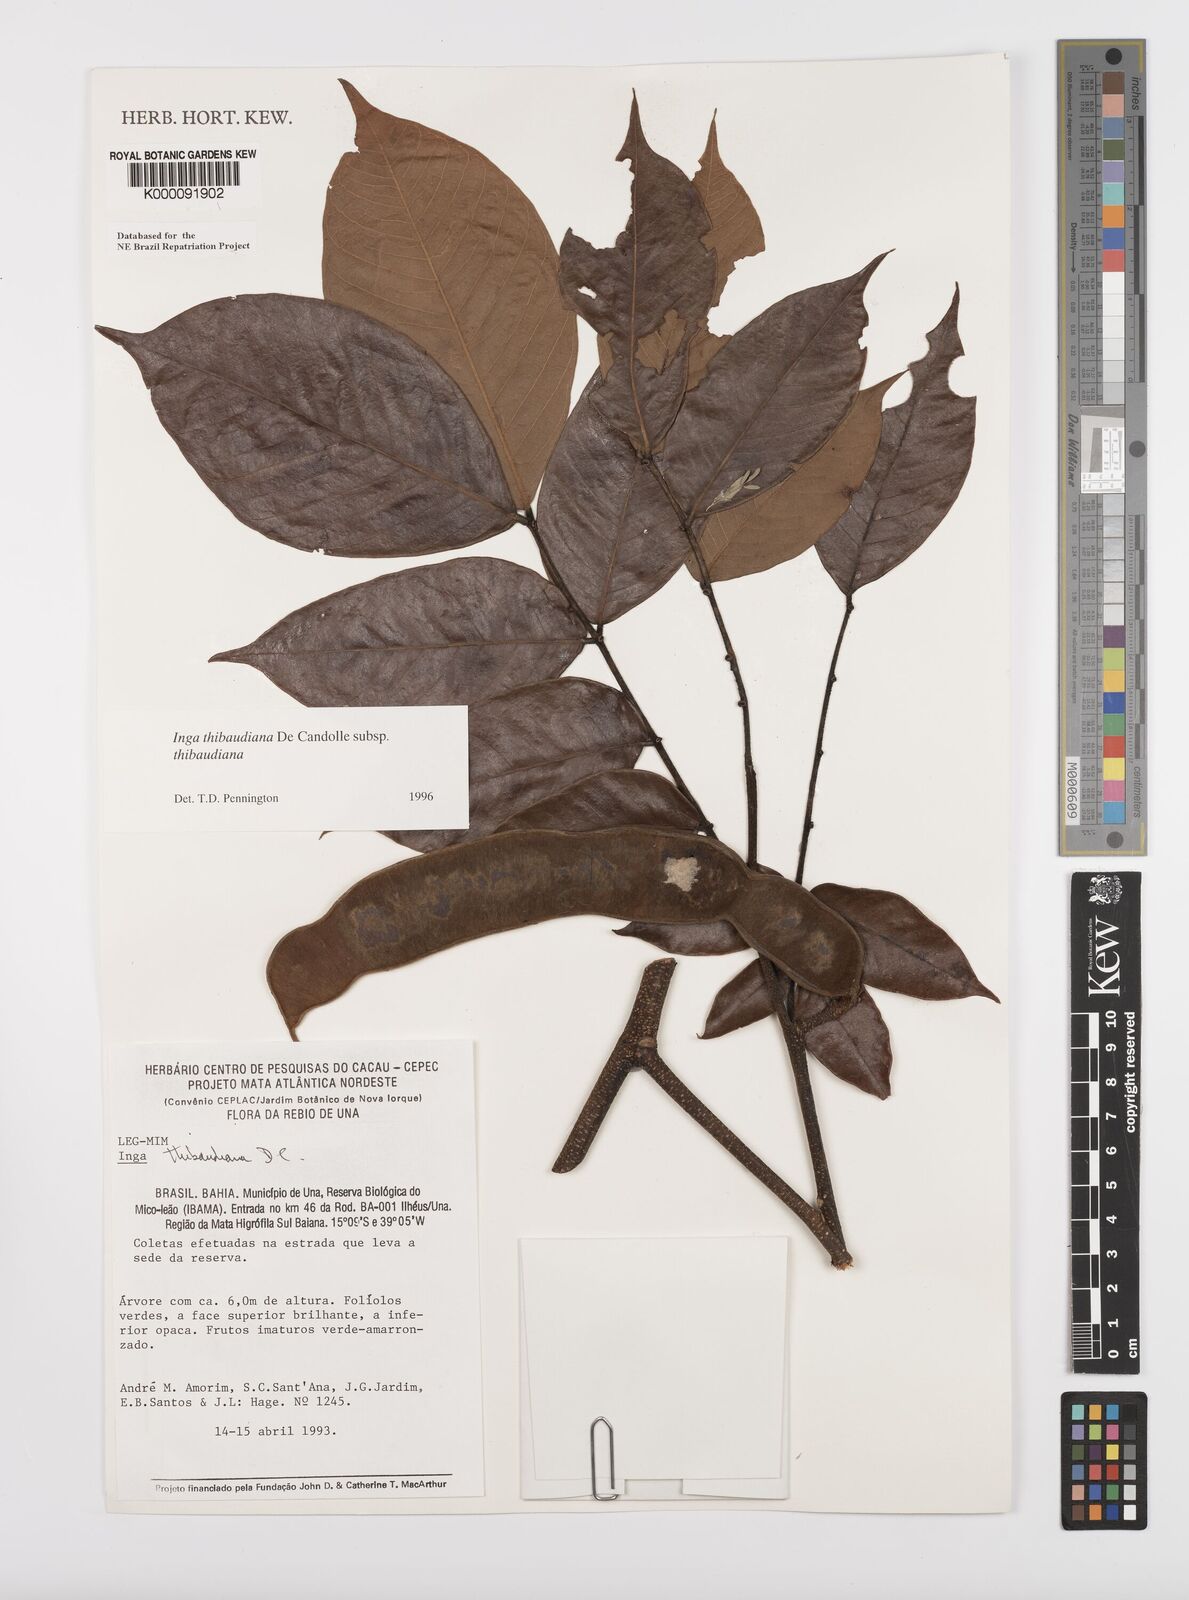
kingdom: Plantae
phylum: Tracheophyta
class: Magnoliopsida
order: Fabales
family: Fabaceae
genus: Inga
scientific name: Inga thibaudiana
